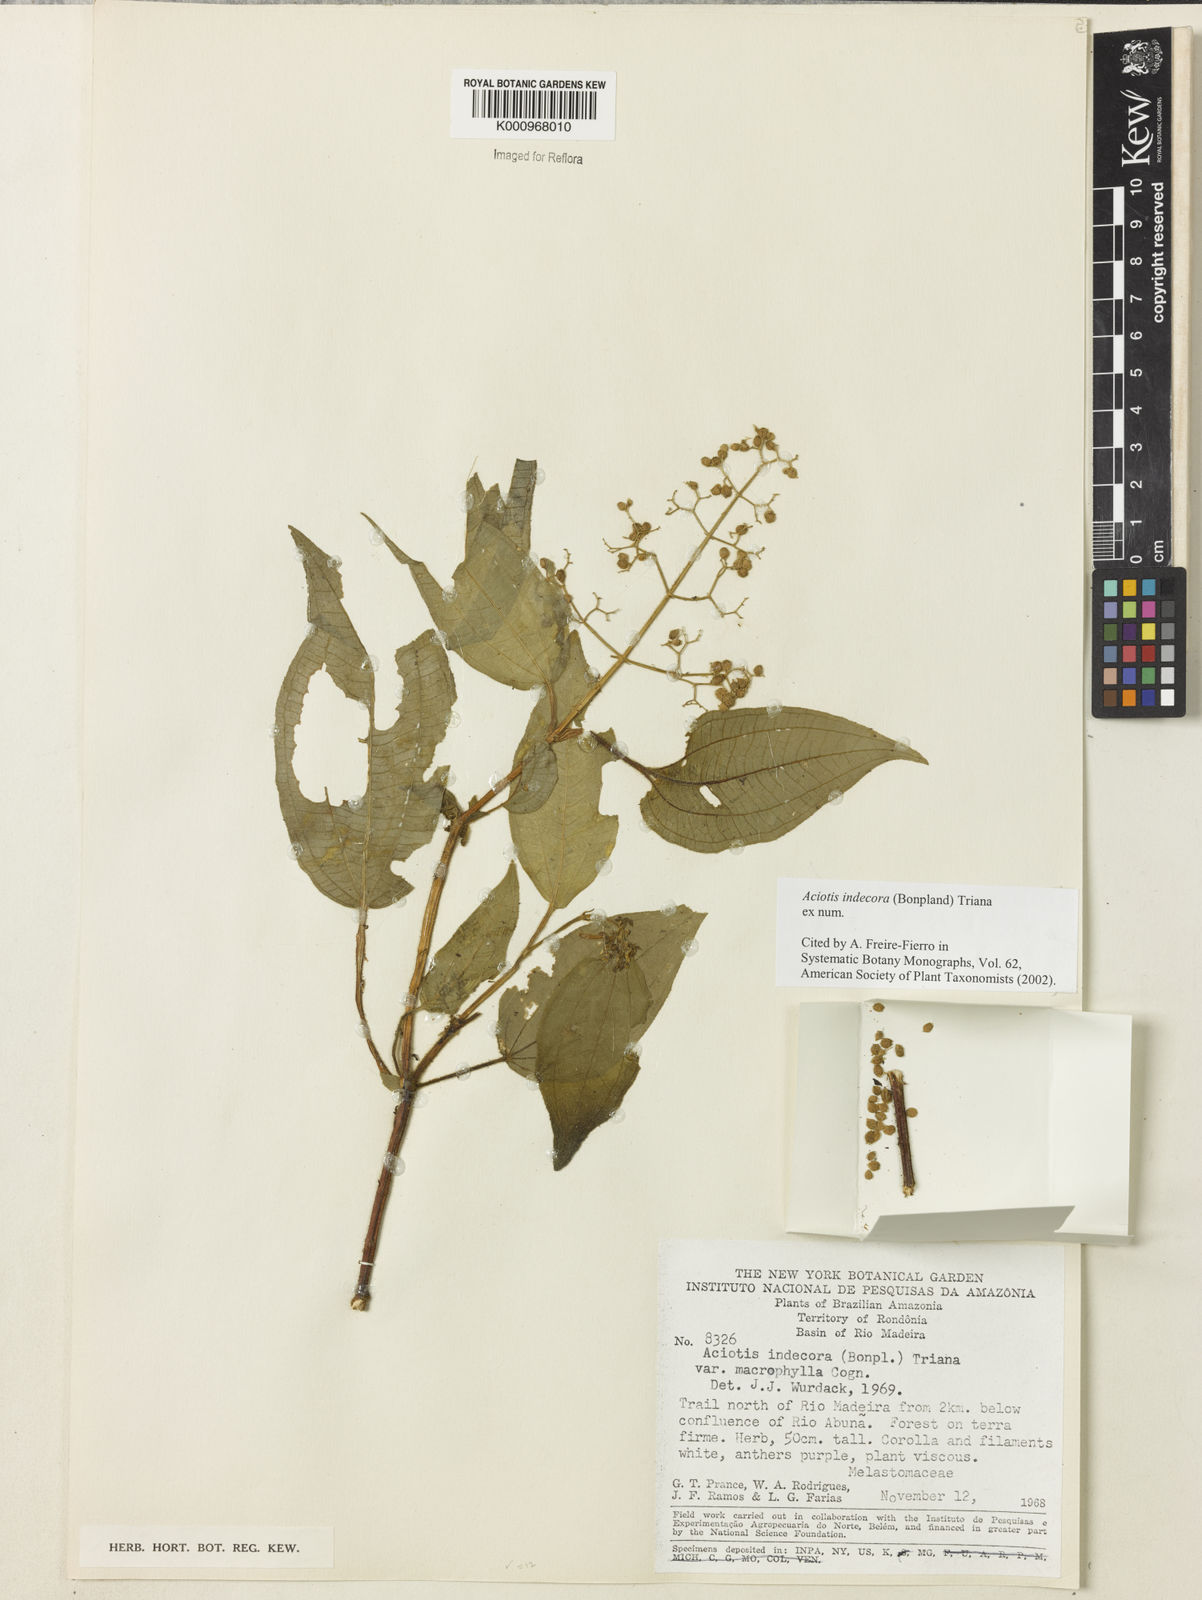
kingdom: Plantae
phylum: Tracheophyta
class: Magnoliopsida
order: Myrtales
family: Melastomataceae
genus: Aciotis
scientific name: Aciotis indecora
